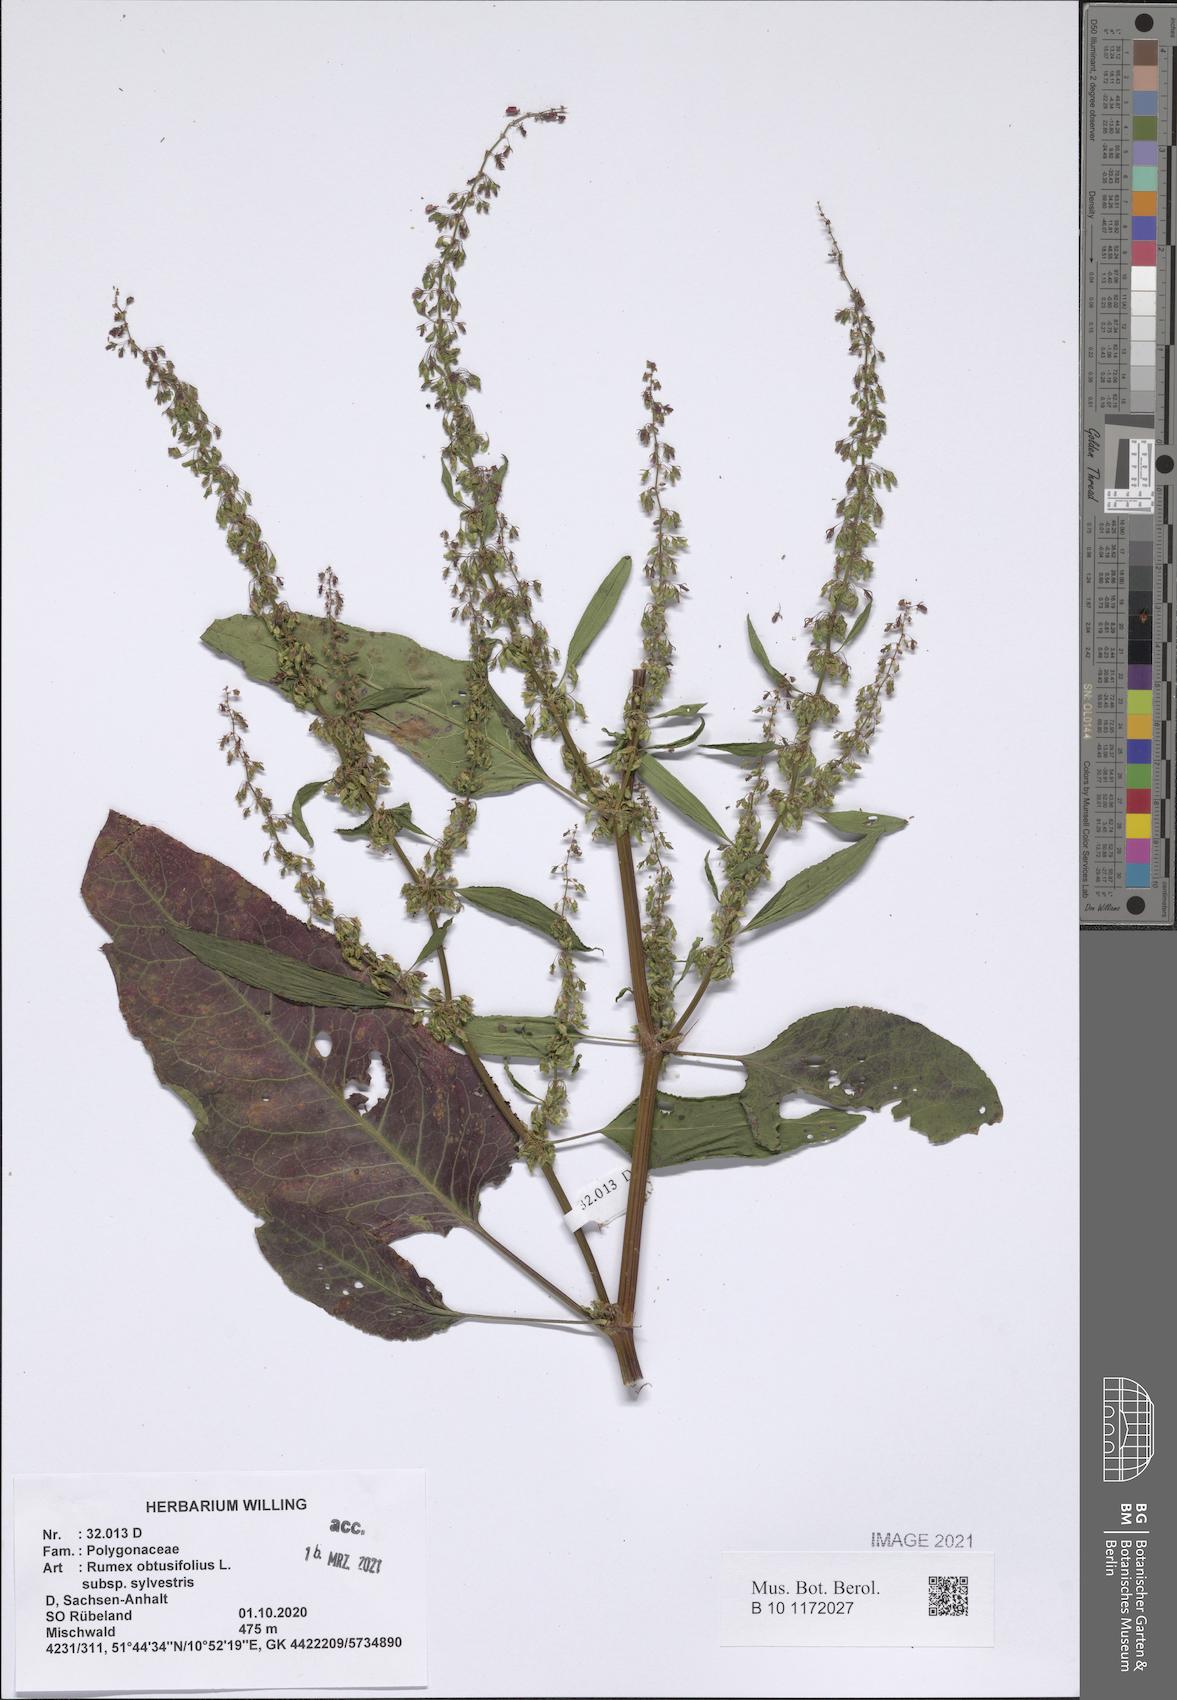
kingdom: Plantae
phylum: Tracheophyta
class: Magnoliopsida
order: Caryophyllales
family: Polygonaceae
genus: Rumex
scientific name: Rumex obtusifolius
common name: Bitter dock
